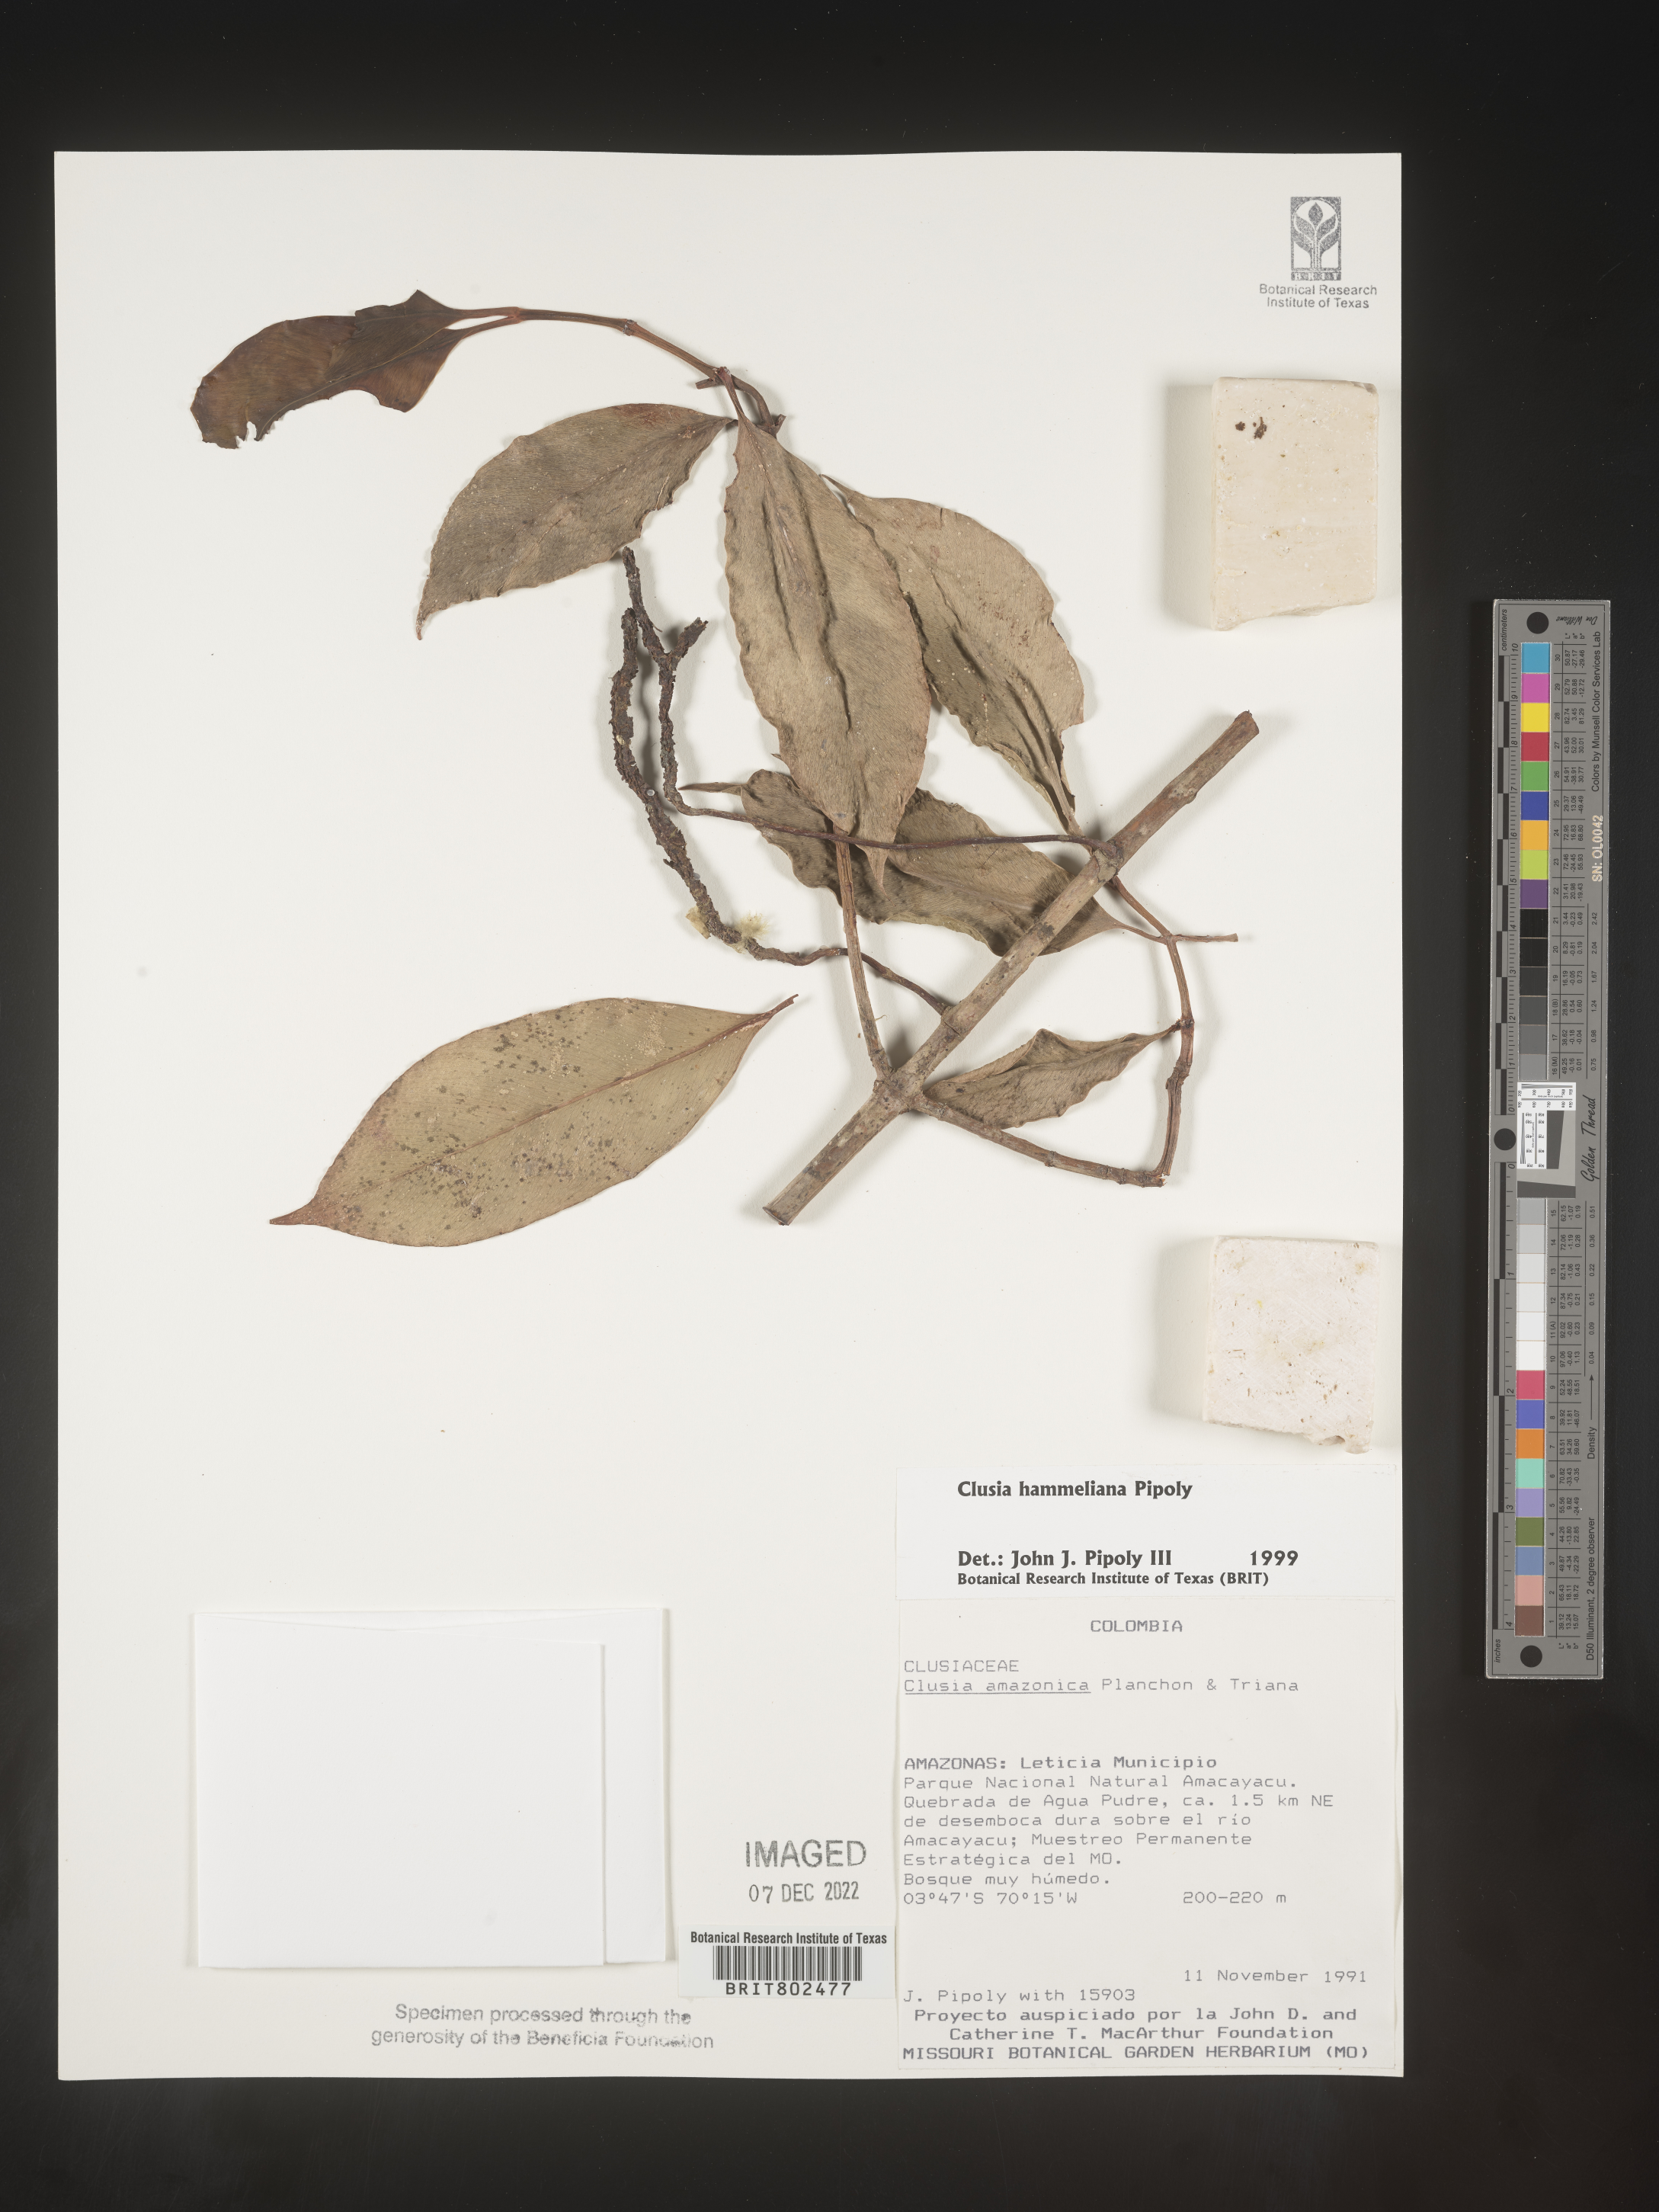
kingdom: Plantae
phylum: Tracheophyta
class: Magnoliopsida
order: Malpighiales
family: Clusiaceae
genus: Clusia
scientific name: Clusia hammeliana
